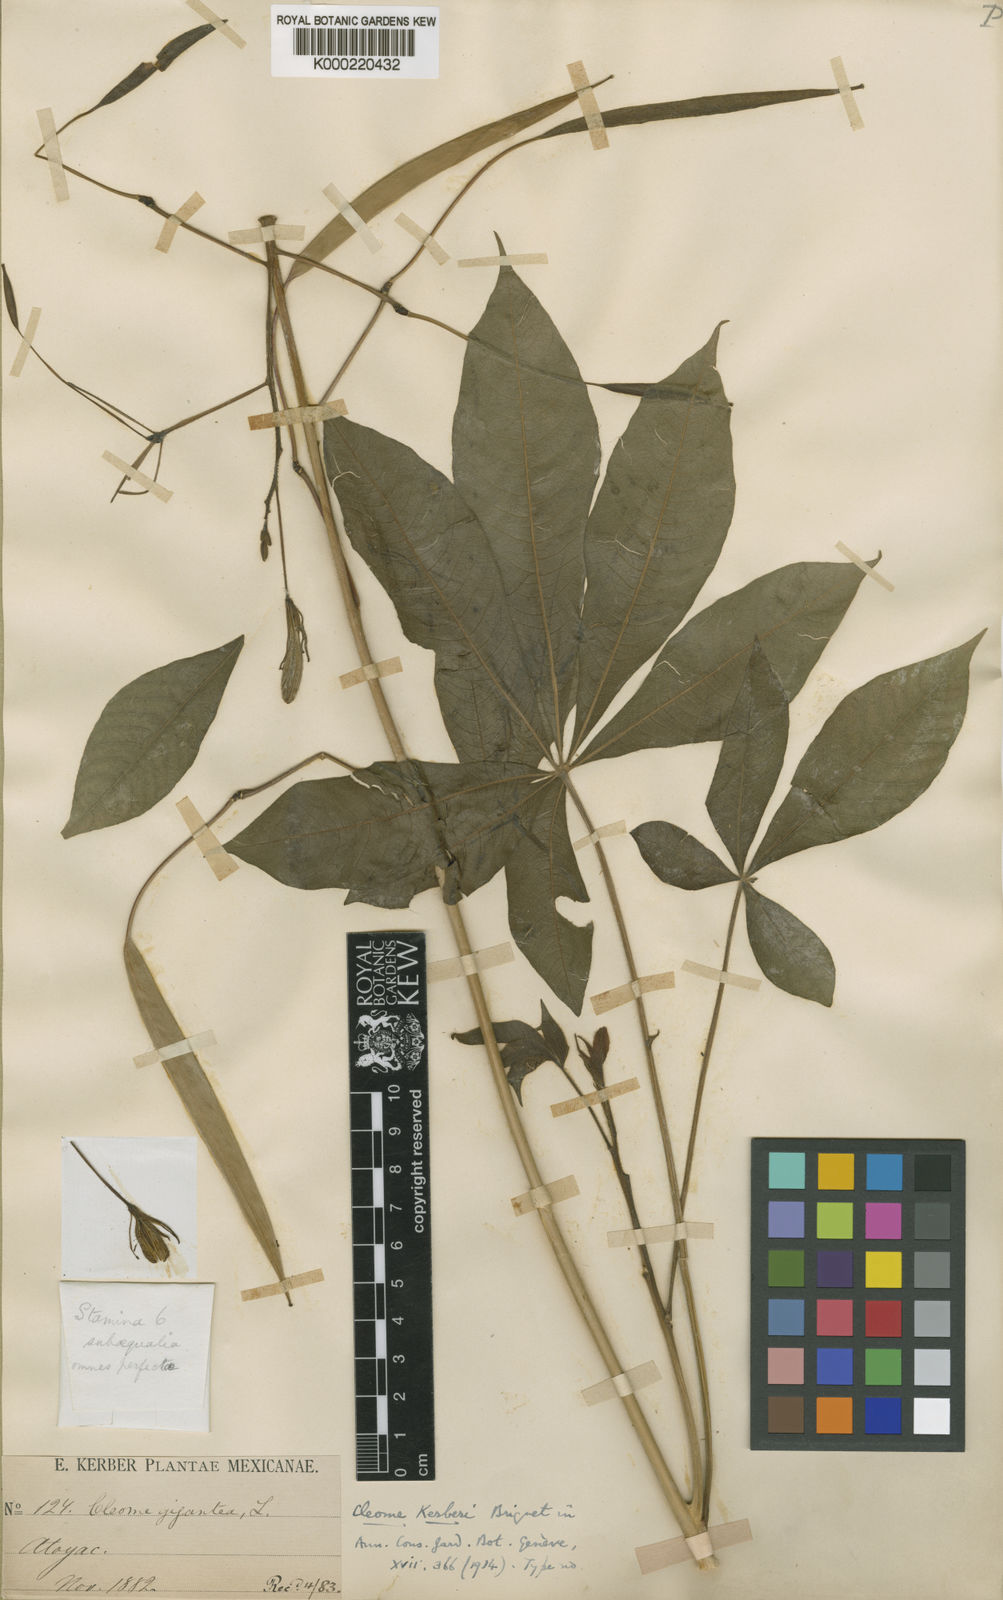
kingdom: Plantae
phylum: Tracheophyta
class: Magnoliopsida
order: Brassicales
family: Cleomaceae
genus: Melidiscus
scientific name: Melidiscus gigantea
